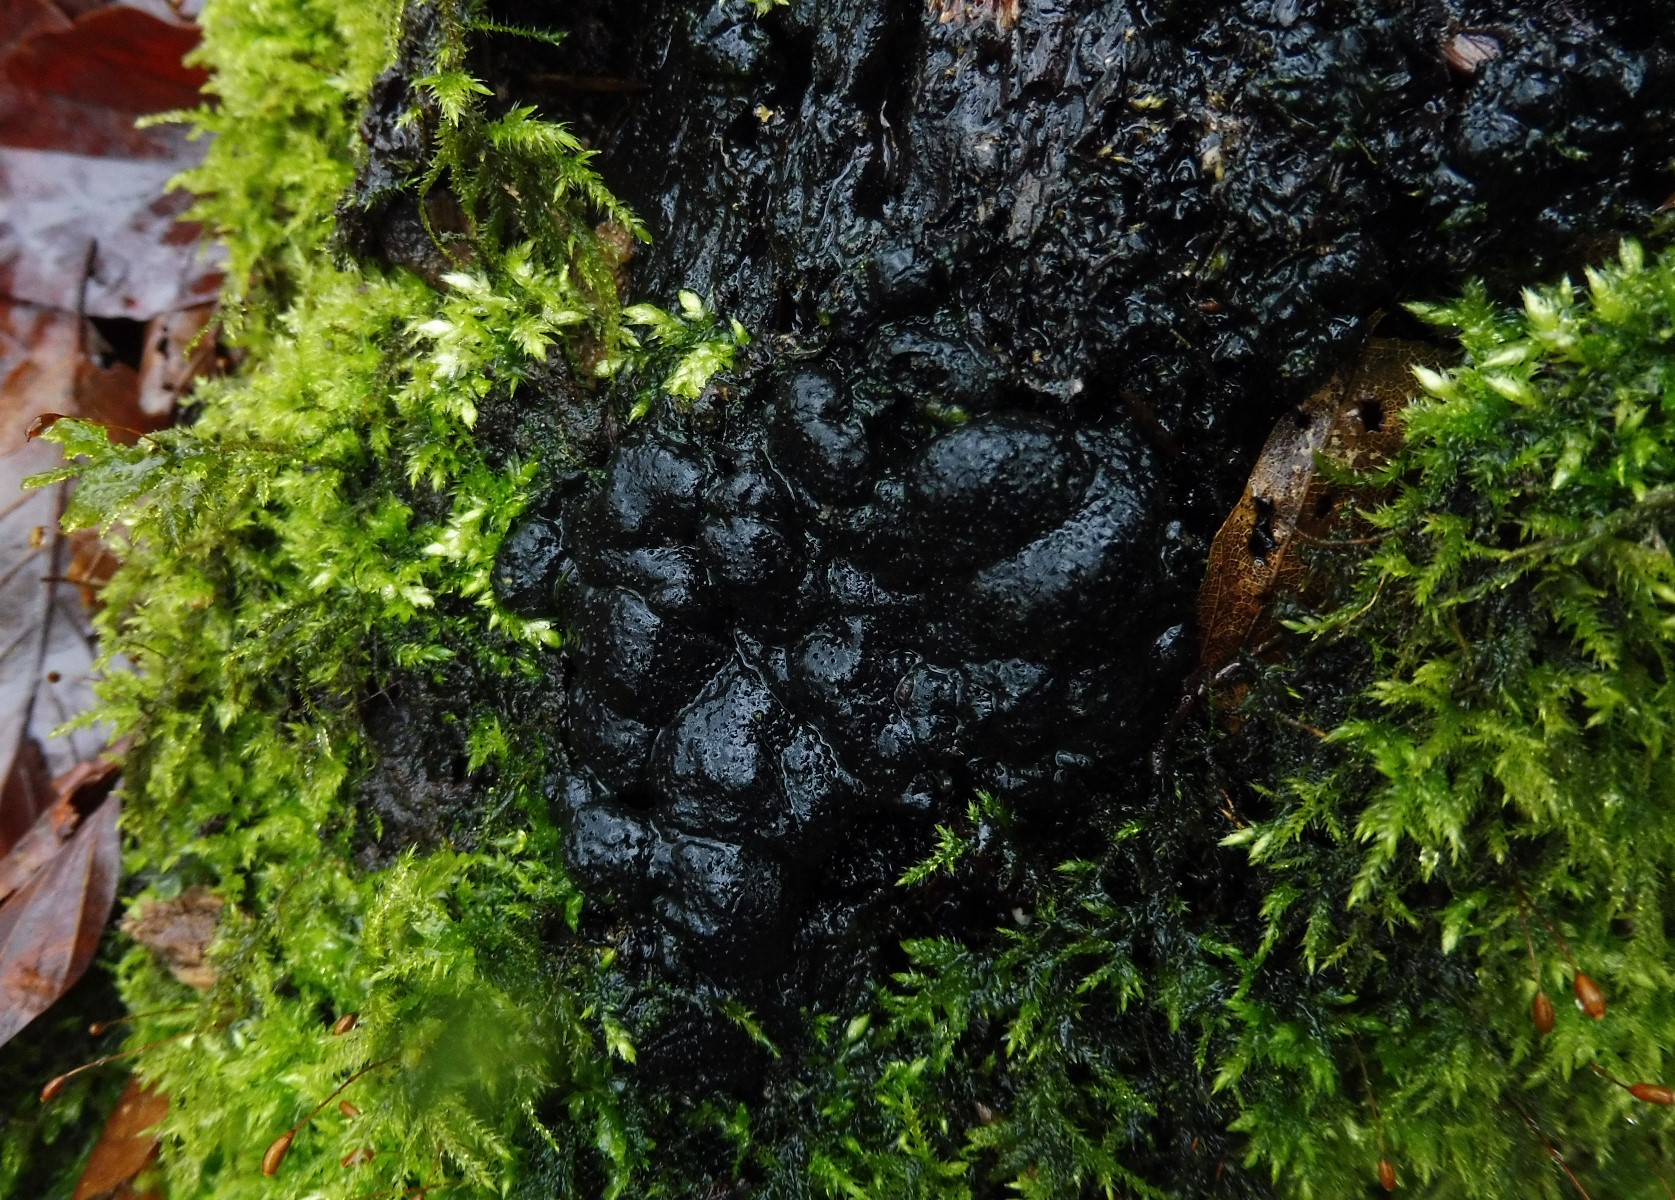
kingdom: Fungi
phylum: Ascomycota
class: Sordariomycetes
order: Xylariales
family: Xylariaceae
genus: Kretzschmaria
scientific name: Kretzschmaria deusta
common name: stor kulsvamp
